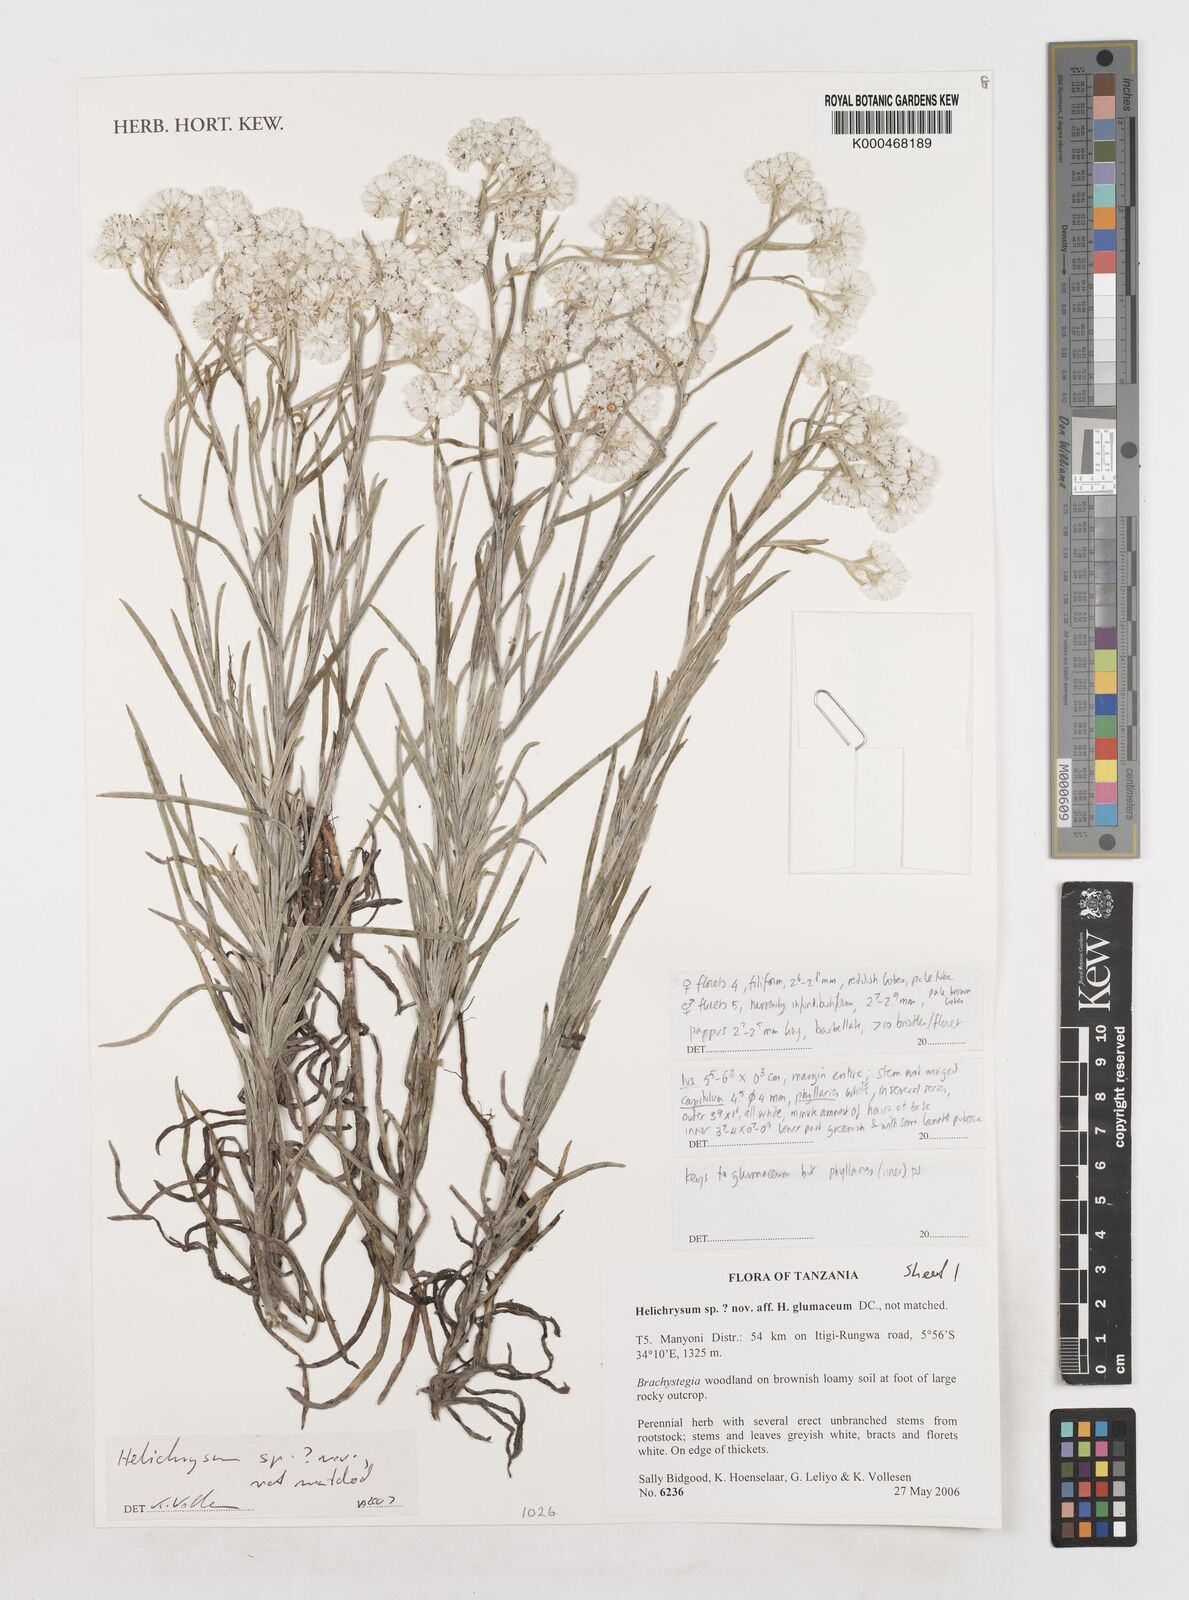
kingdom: Plantae
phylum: Tracheophyta
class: Magnoliopsida
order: Asterales
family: Asteraceae
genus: Helichrysum
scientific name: Helichrysum
